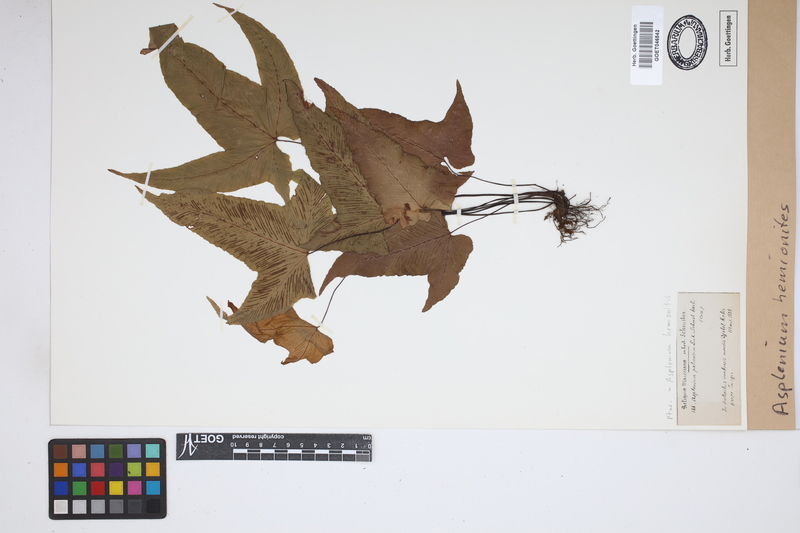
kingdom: Plantae
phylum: Tracheophyta
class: Polypodiopsida
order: Polypodiales
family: Aspleniaceae
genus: Asplenium
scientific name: Asplenium hemionitis
